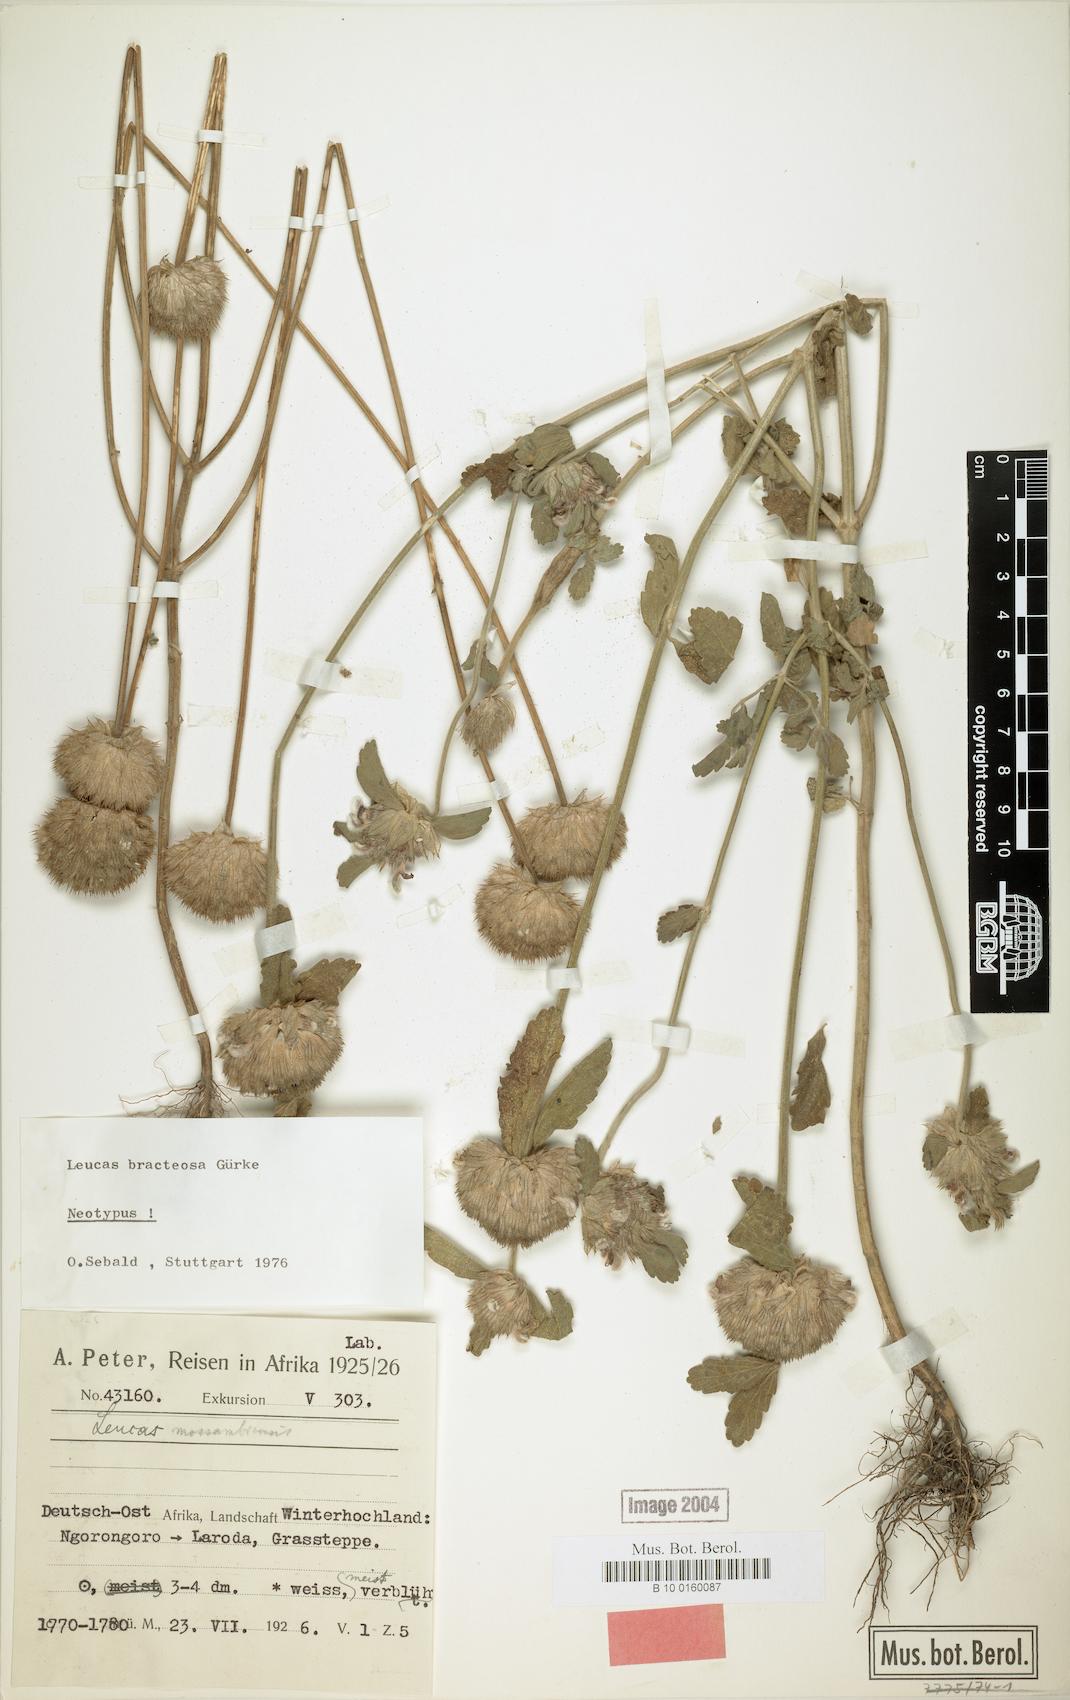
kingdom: Plantae
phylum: Tracheophyta
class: Magnoliopsida
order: Lamiales
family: Lamiaceae
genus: Leucas
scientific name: Leucas bracteosa
